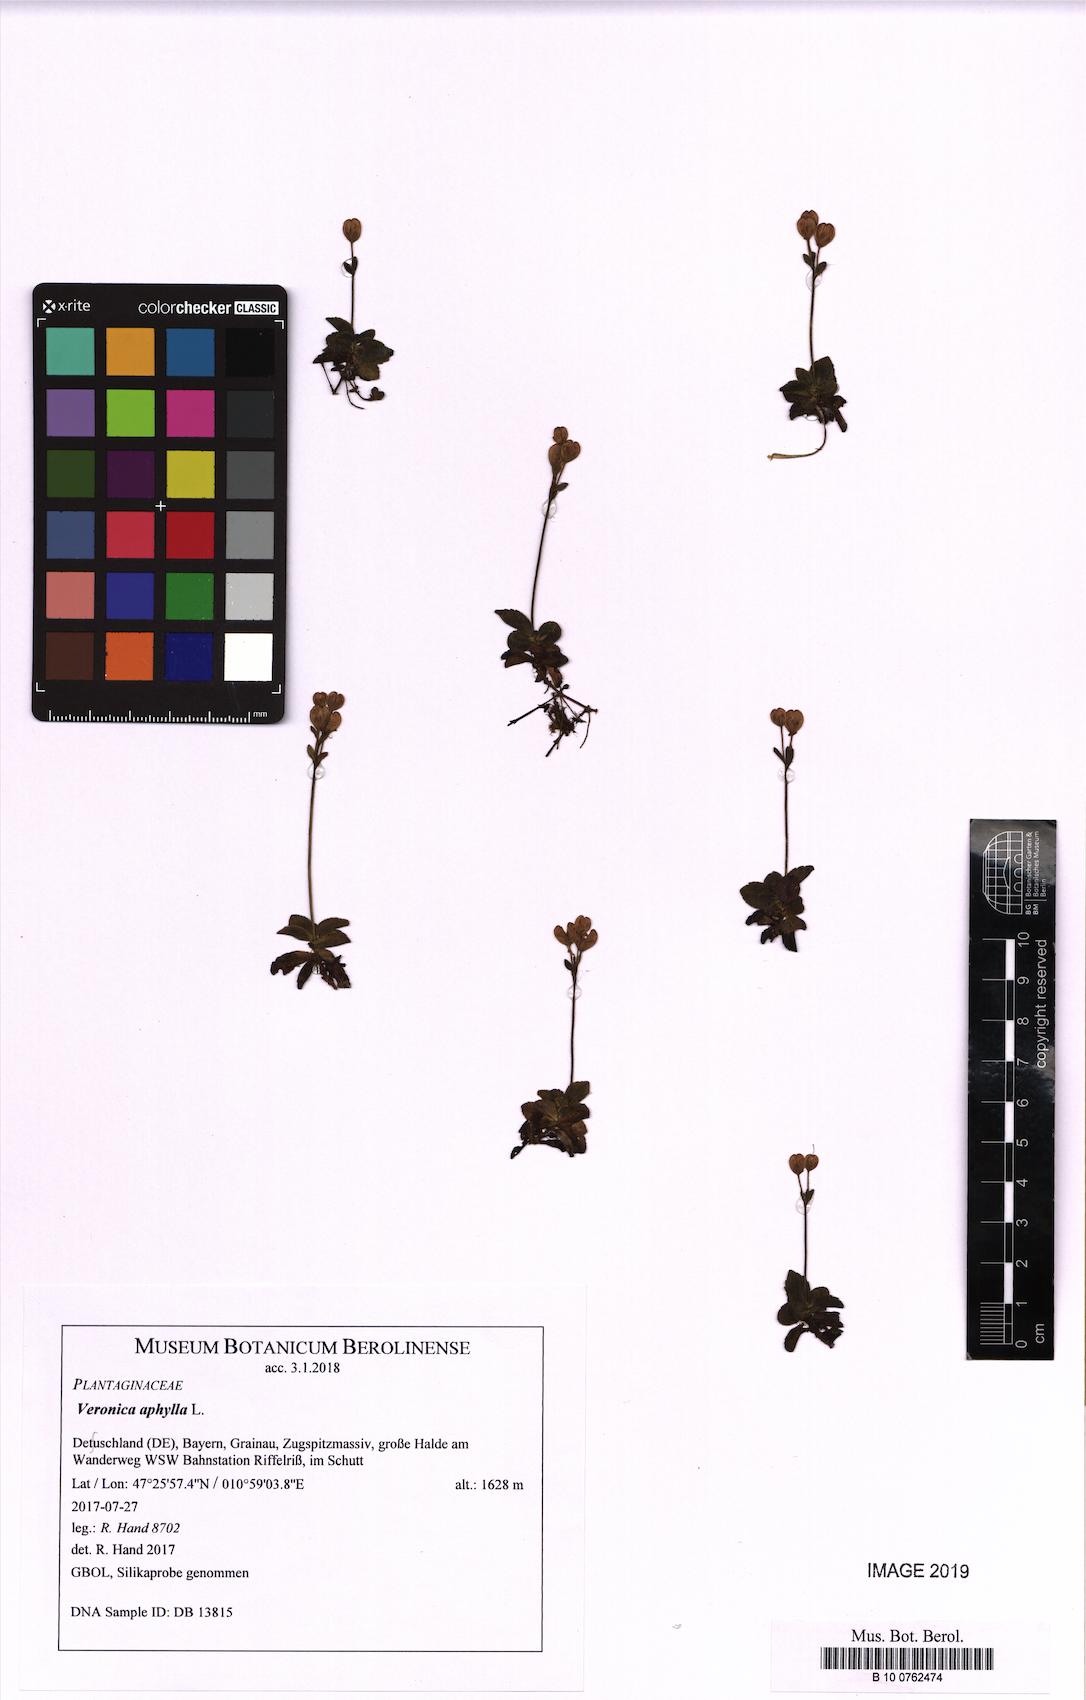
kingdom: Plantae
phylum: Tracheophyta
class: Magnoliopsida
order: Lamiales
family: Plantaginaceae
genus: Veronica
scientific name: Veronica aphylla
